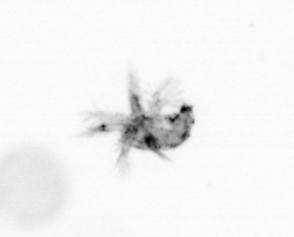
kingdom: Animalia
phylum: Arthropoda
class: Copepoda
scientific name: Copepoda
